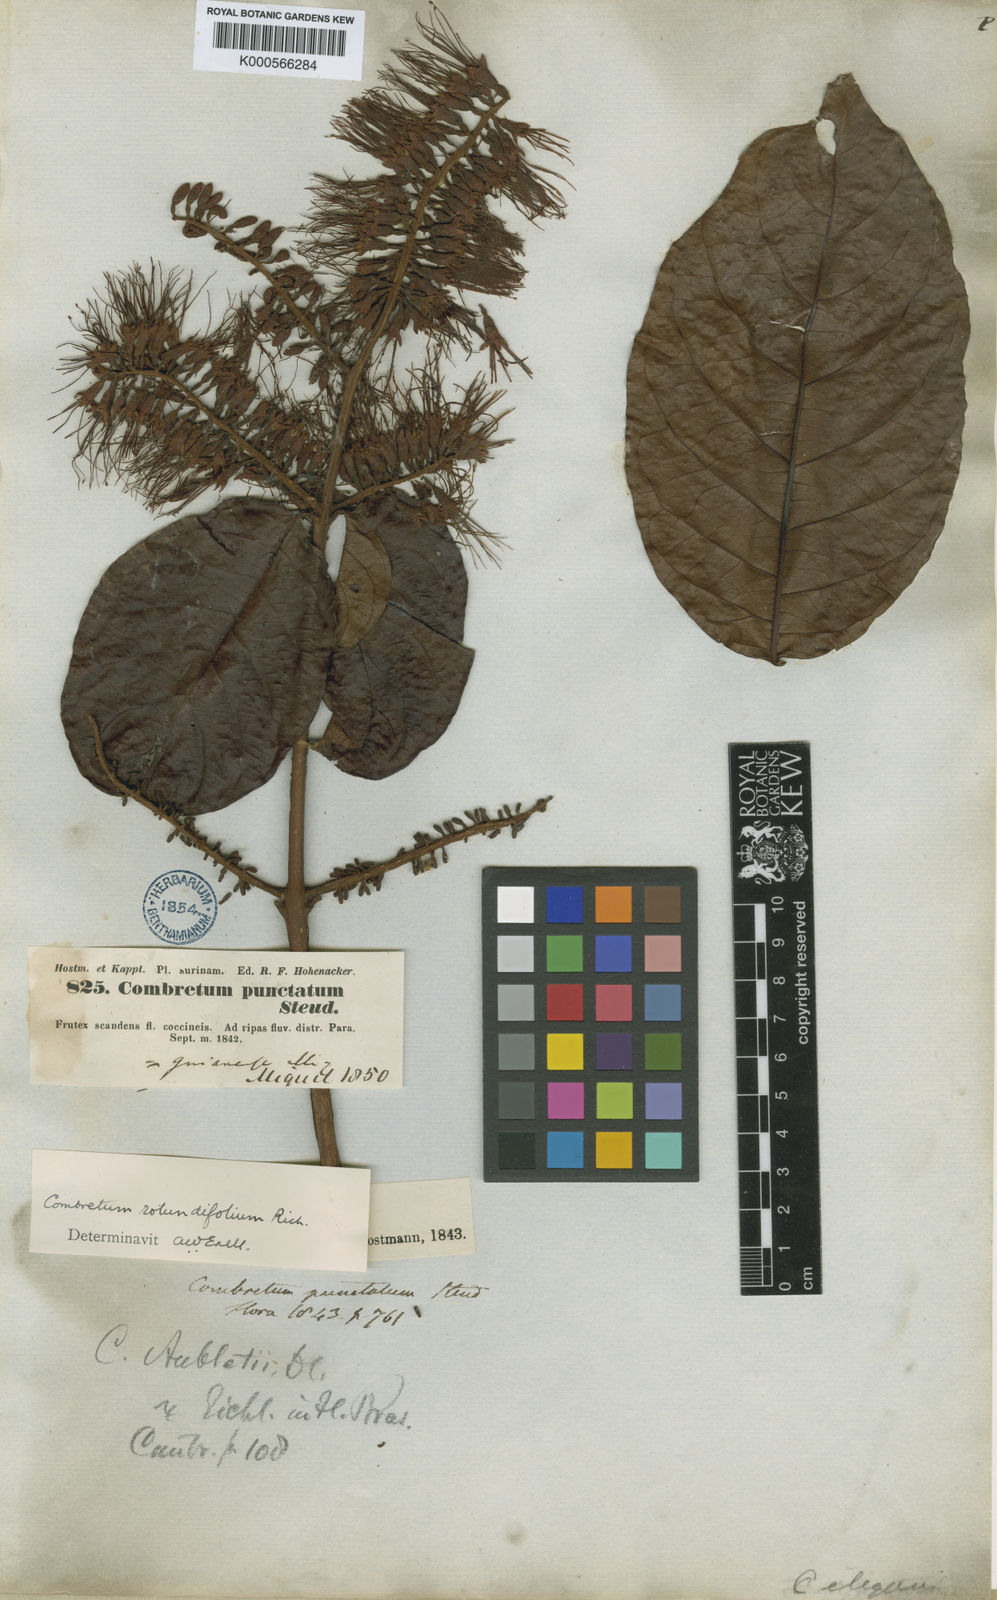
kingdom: Plantae
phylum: Tracheophyta
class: Magnoliopsida
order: Myrtales
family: Combretaceae
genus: Combretum
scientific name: Combretum rotundifolium
